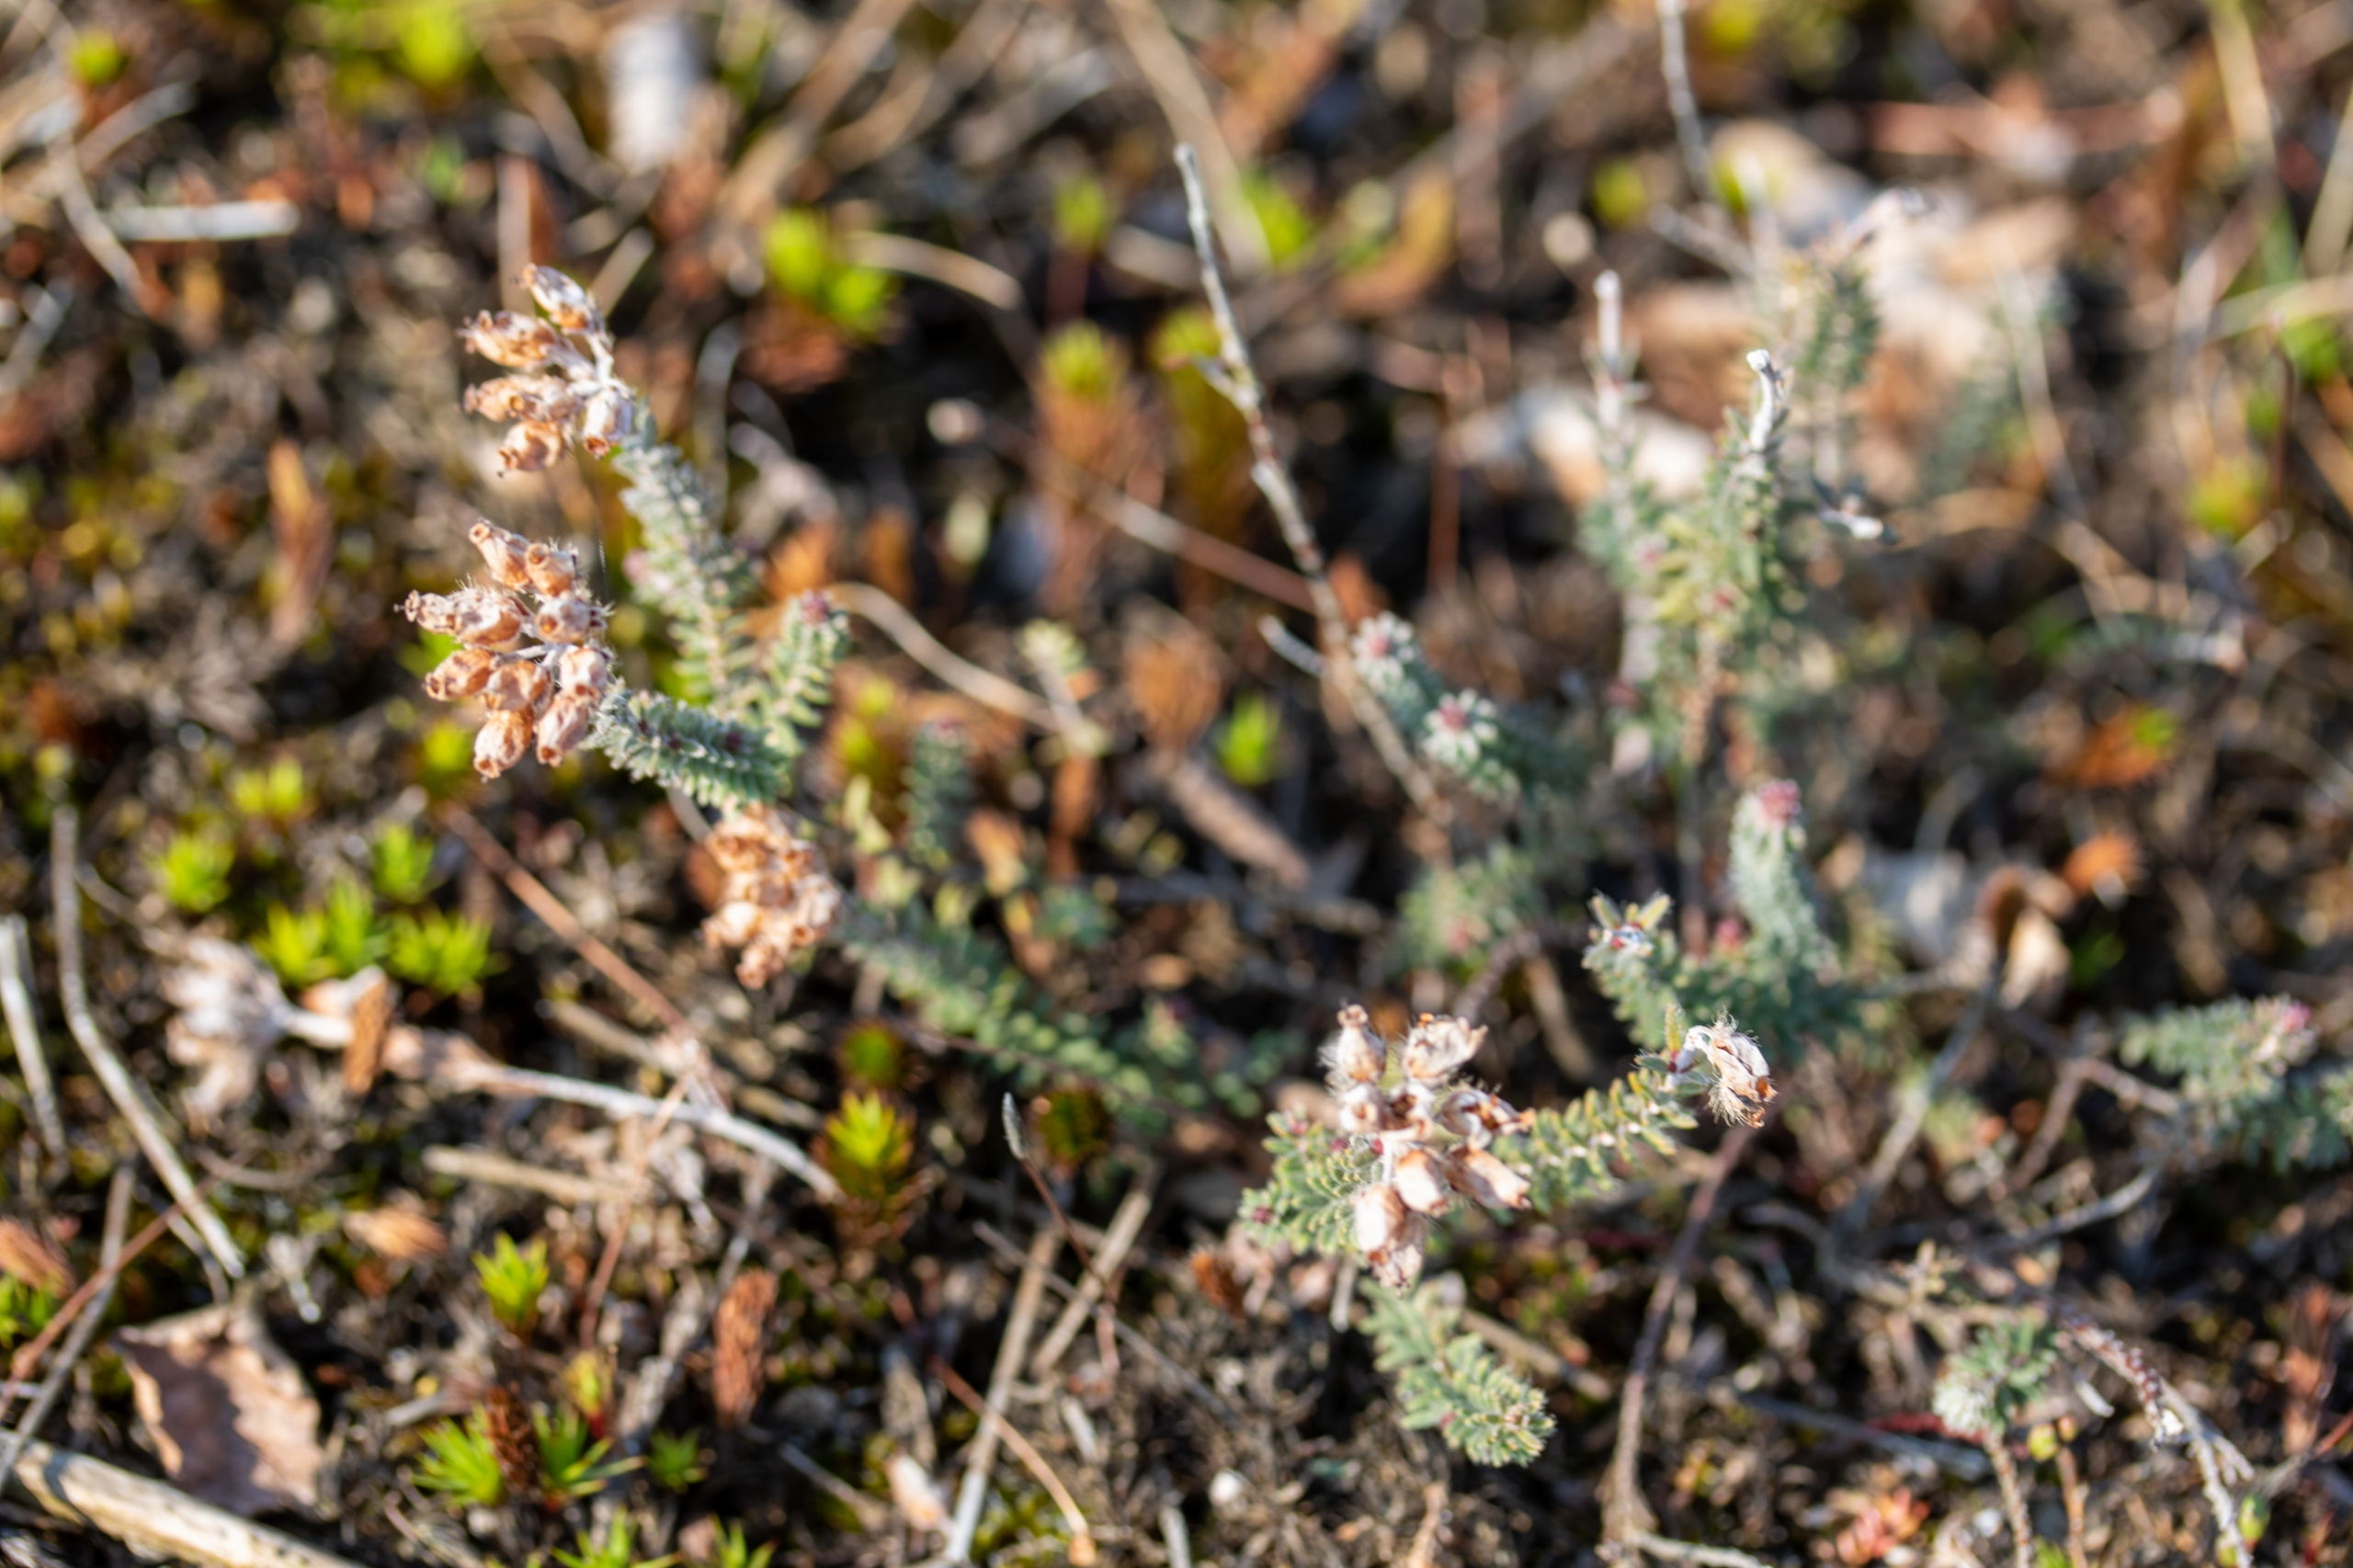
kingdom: Plantae
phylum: Tracheophyta
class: Magnoliopsida
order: Ericales
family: Ericaceae
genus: Erica
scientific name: Erica tetralix
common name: Klokkelyng
